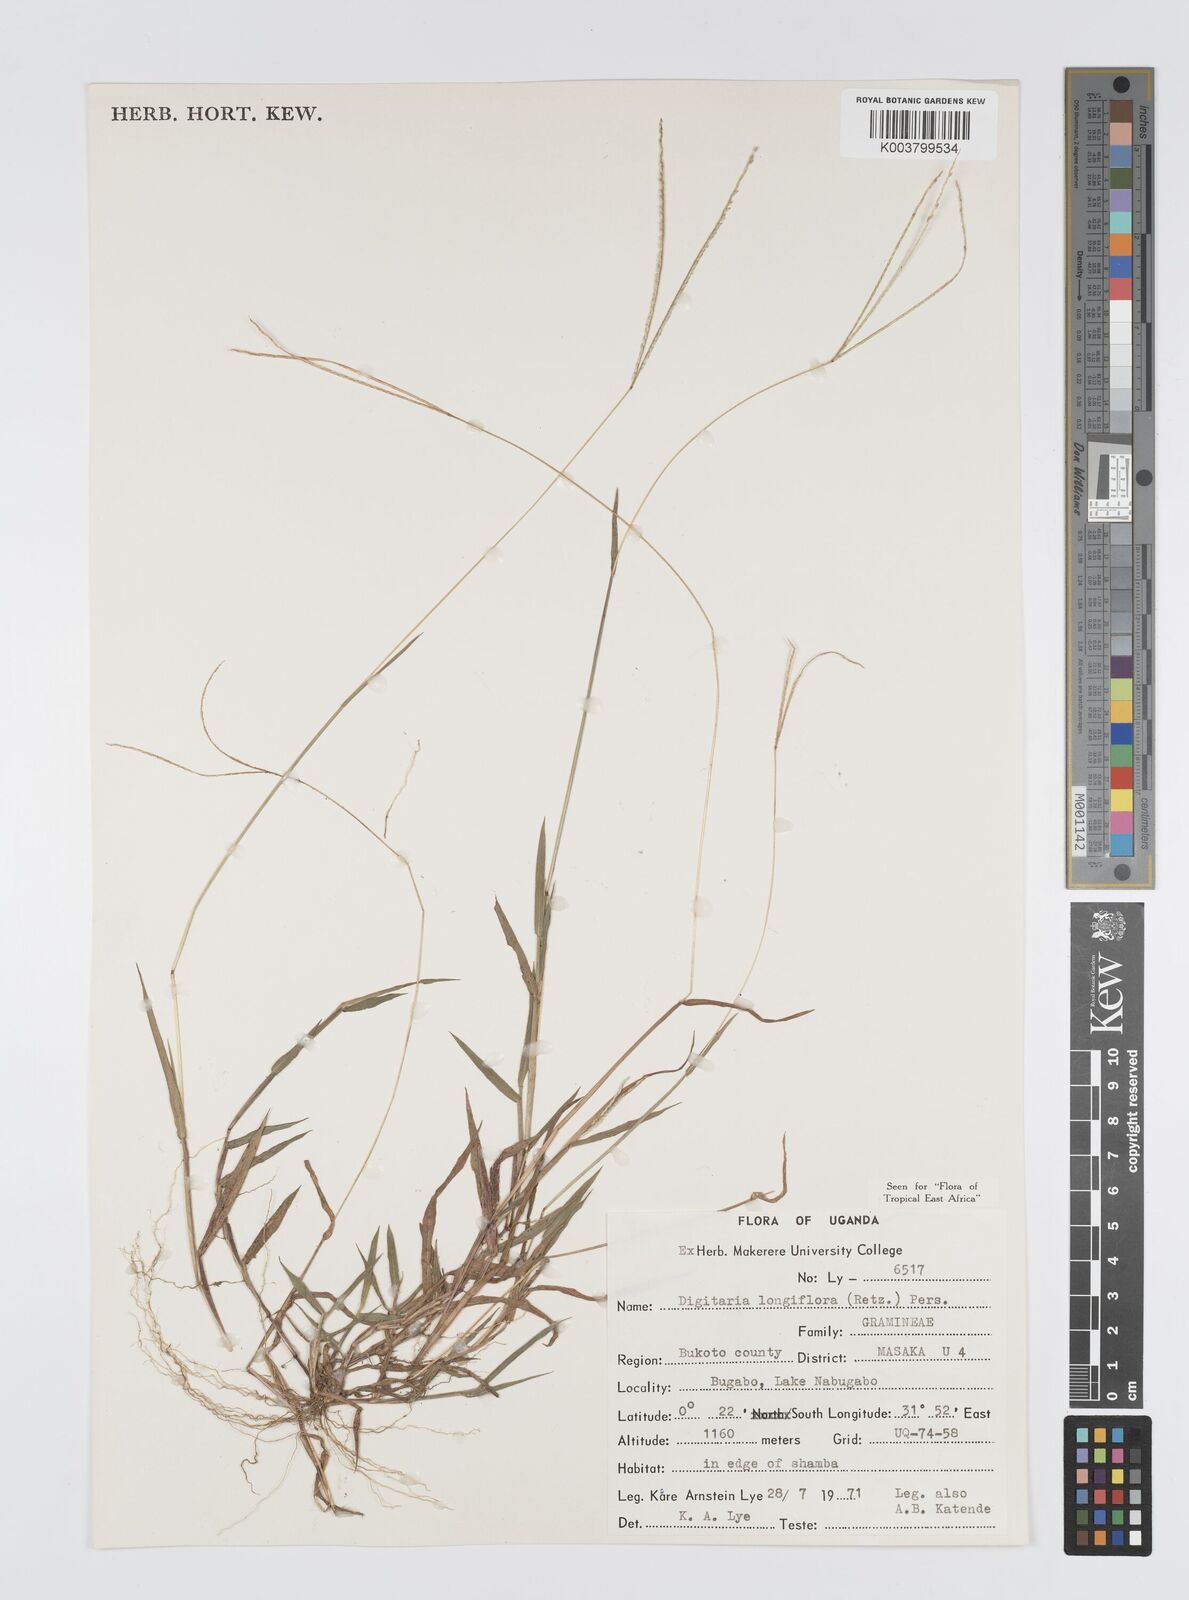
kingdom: Plantae
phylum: Tracheophyta
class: Liliopsida
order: Poales
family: Poaceae
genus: Digitaria
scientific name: Digitaria longiflora
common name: Wire crabgrass
